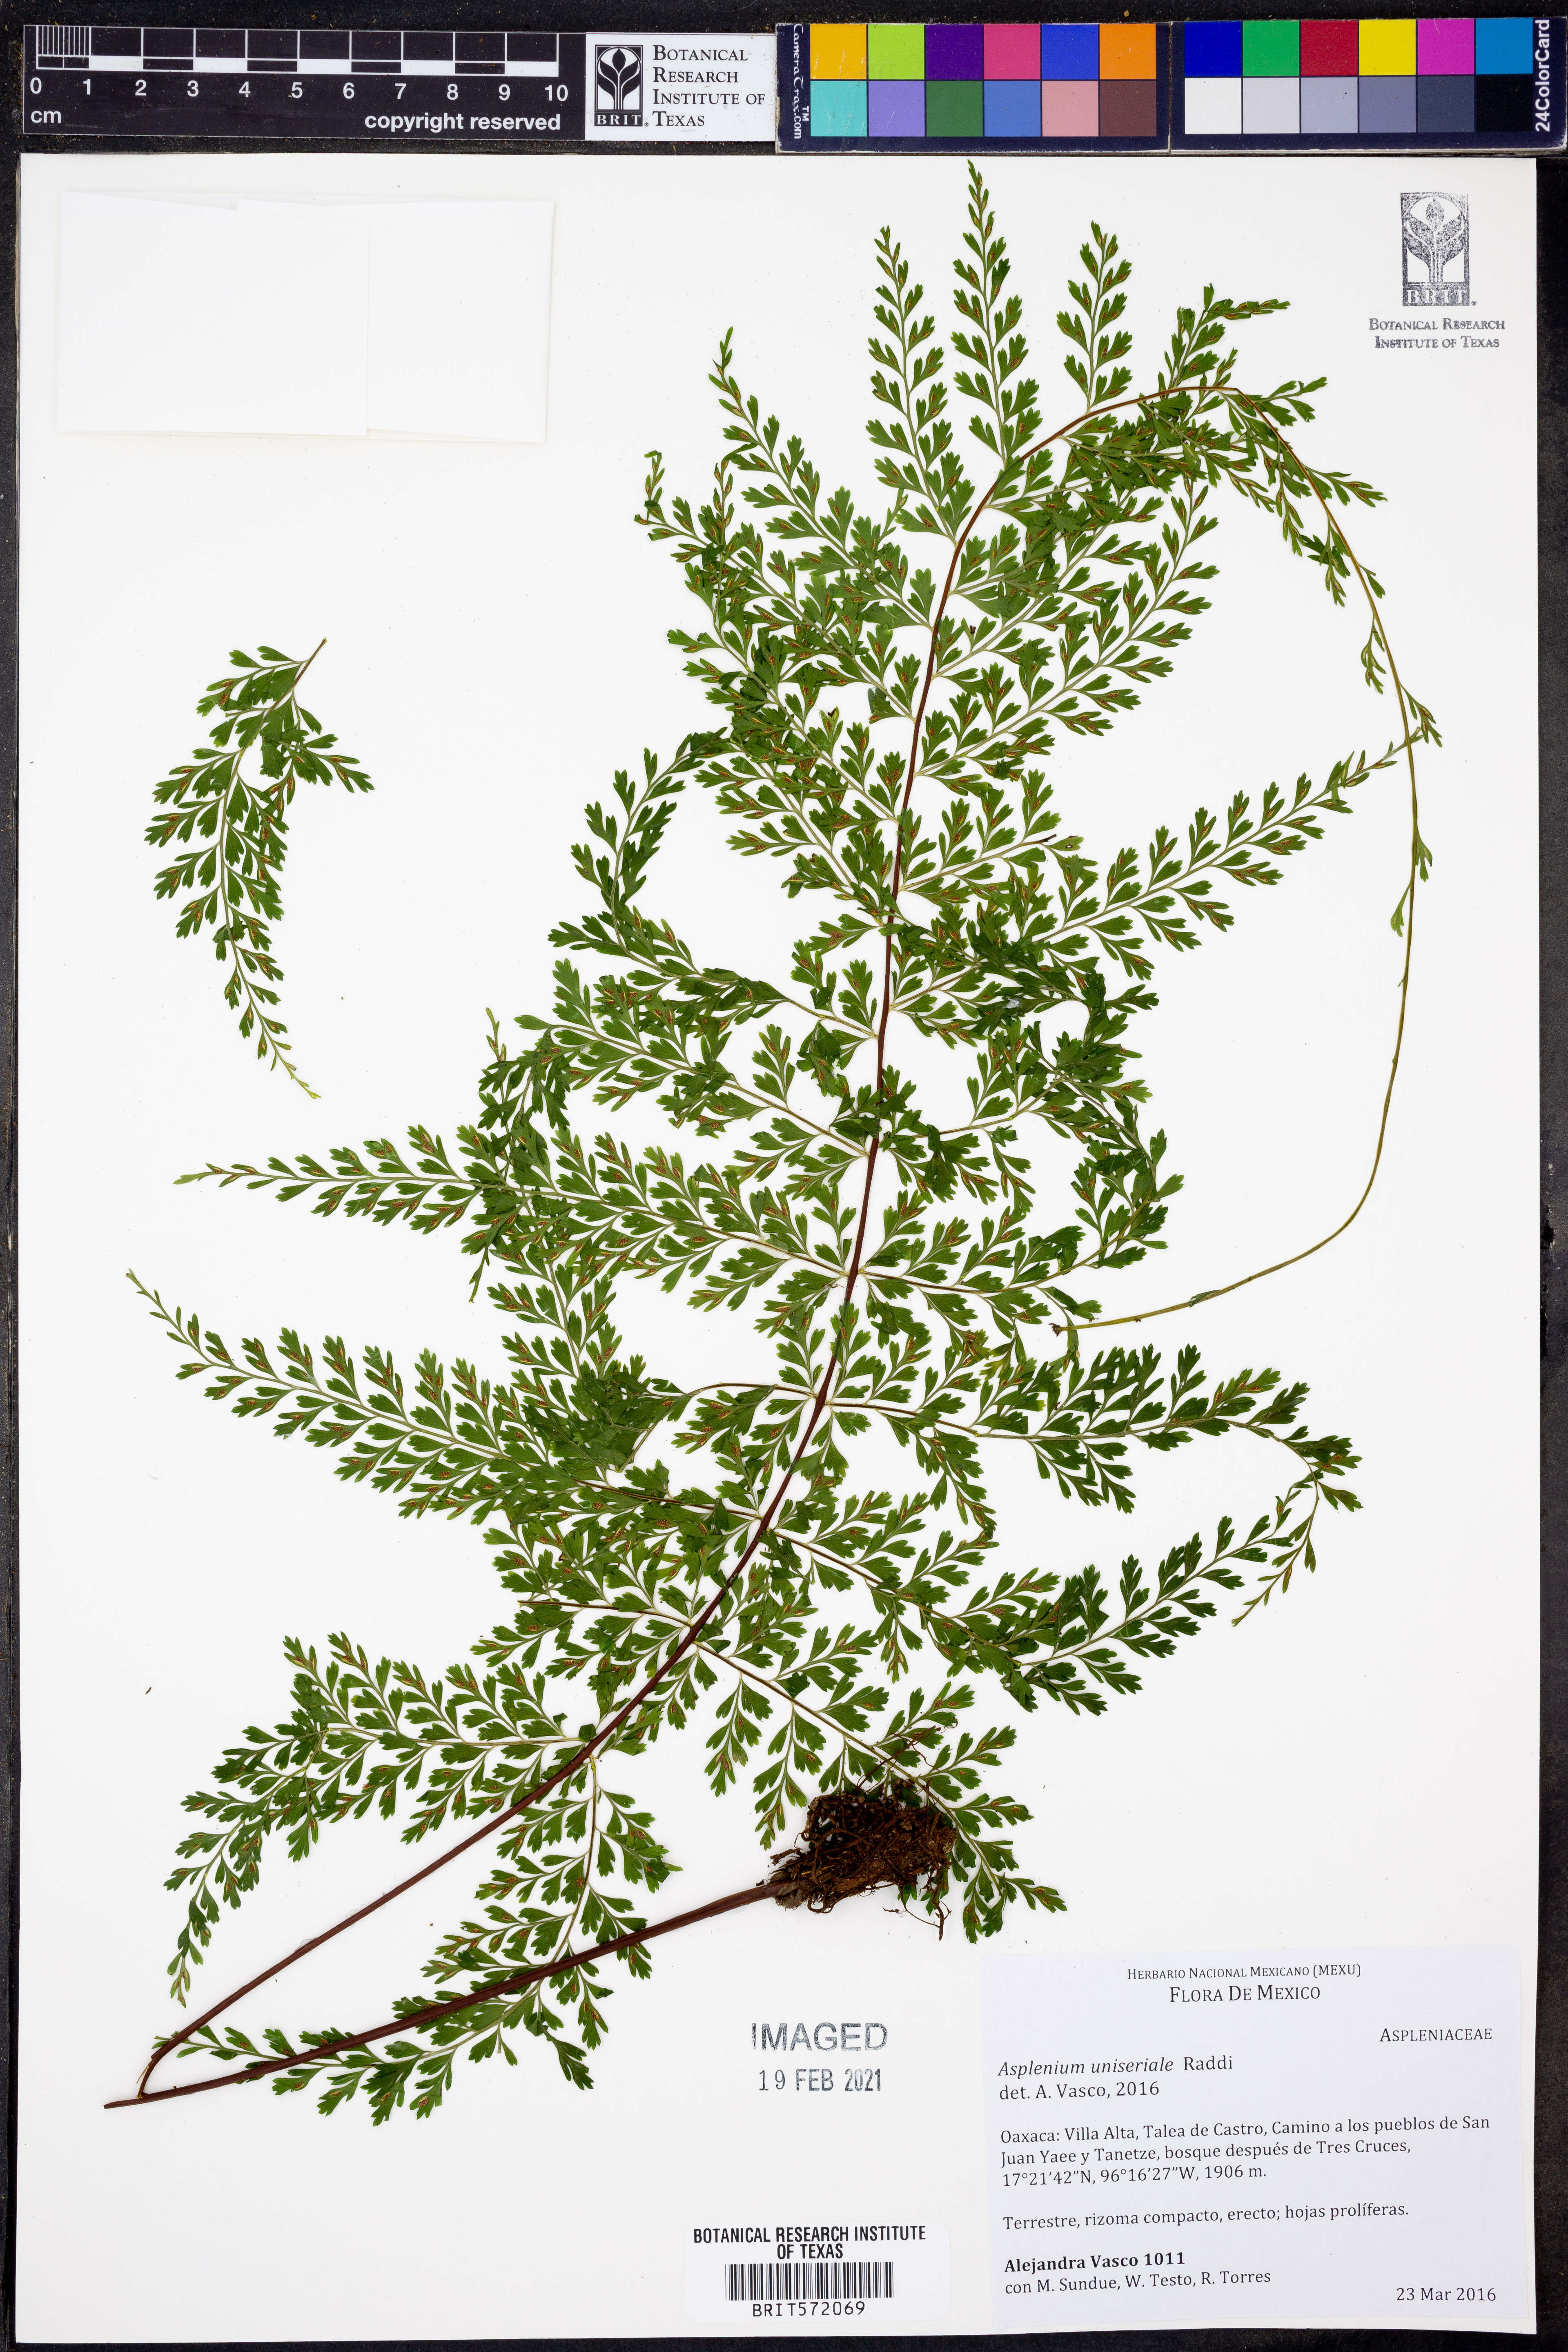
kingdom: Plantae
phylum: Tracheophyta
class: Polypodiopsida
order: Polypodiales
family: Aspleniaceae
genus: Asplenium
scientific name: Asplenium uniseriale
